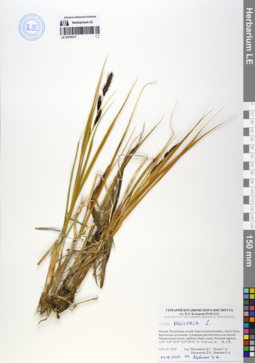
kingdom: Plantae
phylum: Tracheophyta
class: Liliopsida
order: Poales
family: Cyperaceae
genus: Carex
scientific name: Carex vesicaria
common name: Bladder-sedge
